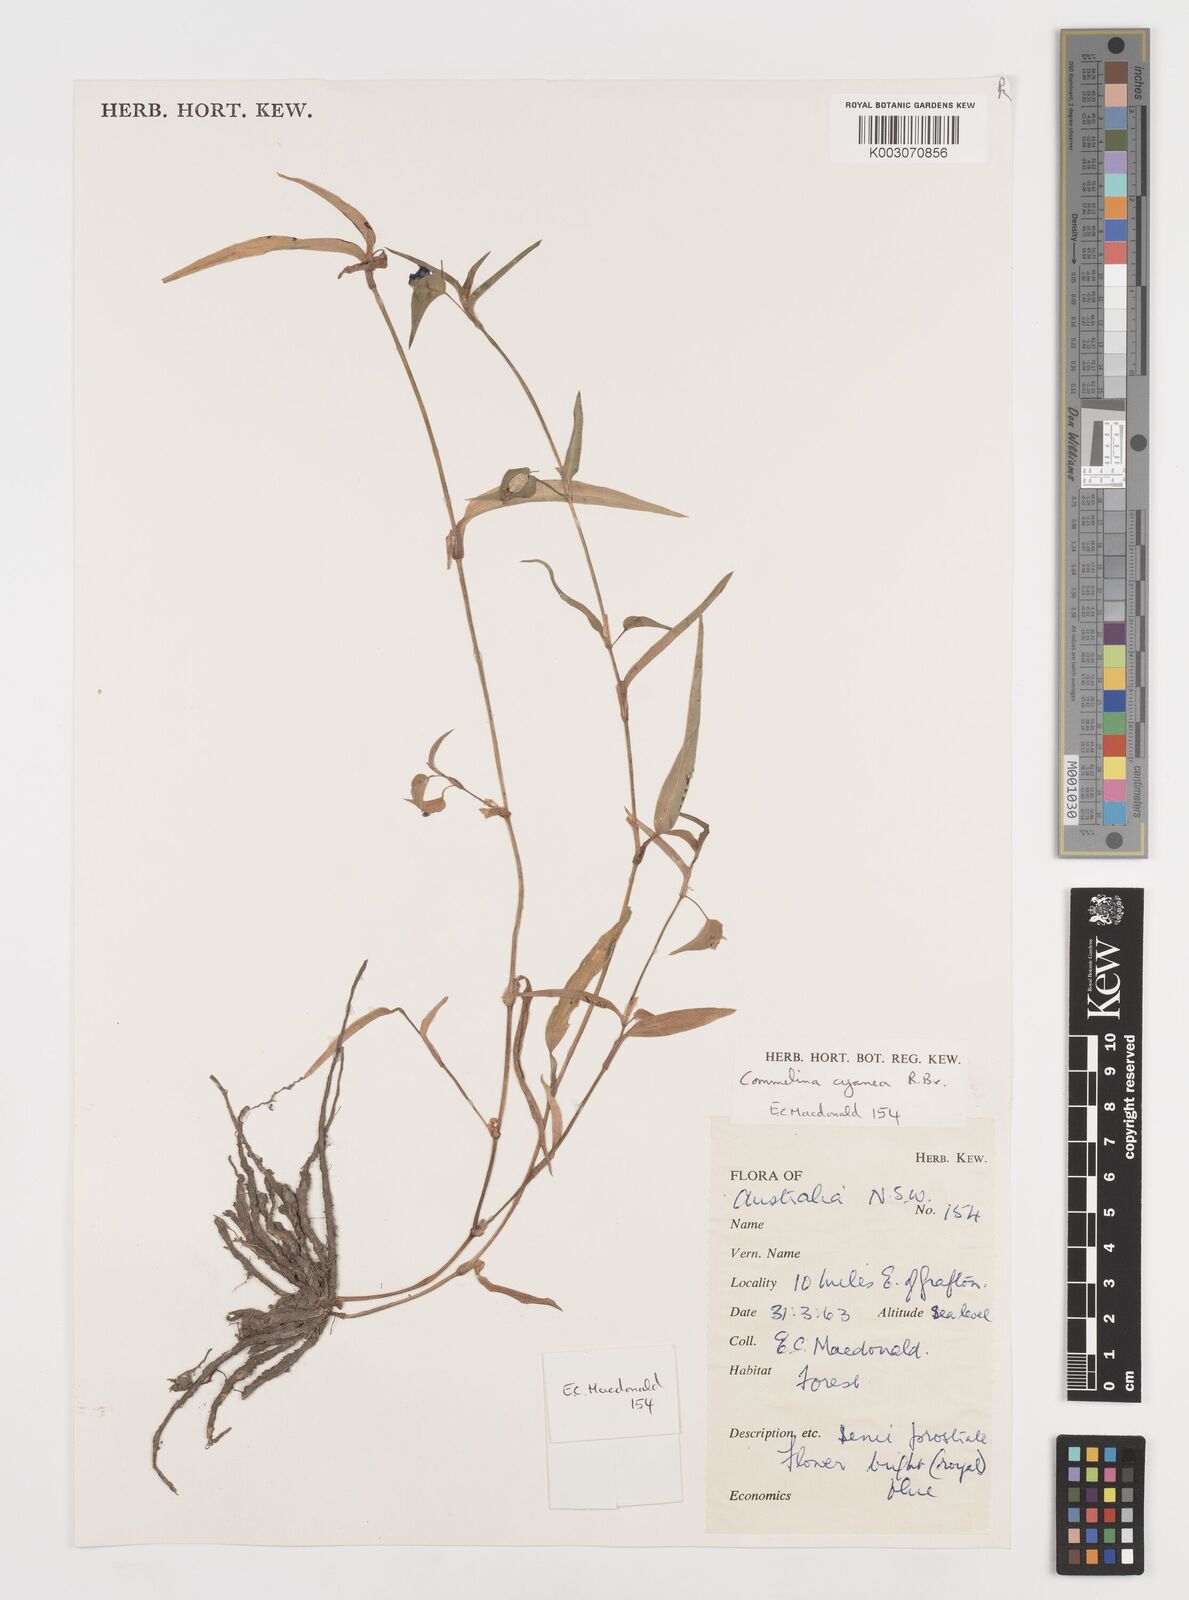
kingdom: Plantae
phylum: Tracheophyta
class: Liliopsida
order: Commelinales
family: Commelinaceae
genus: Commelina
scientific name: Commelina cyanea
